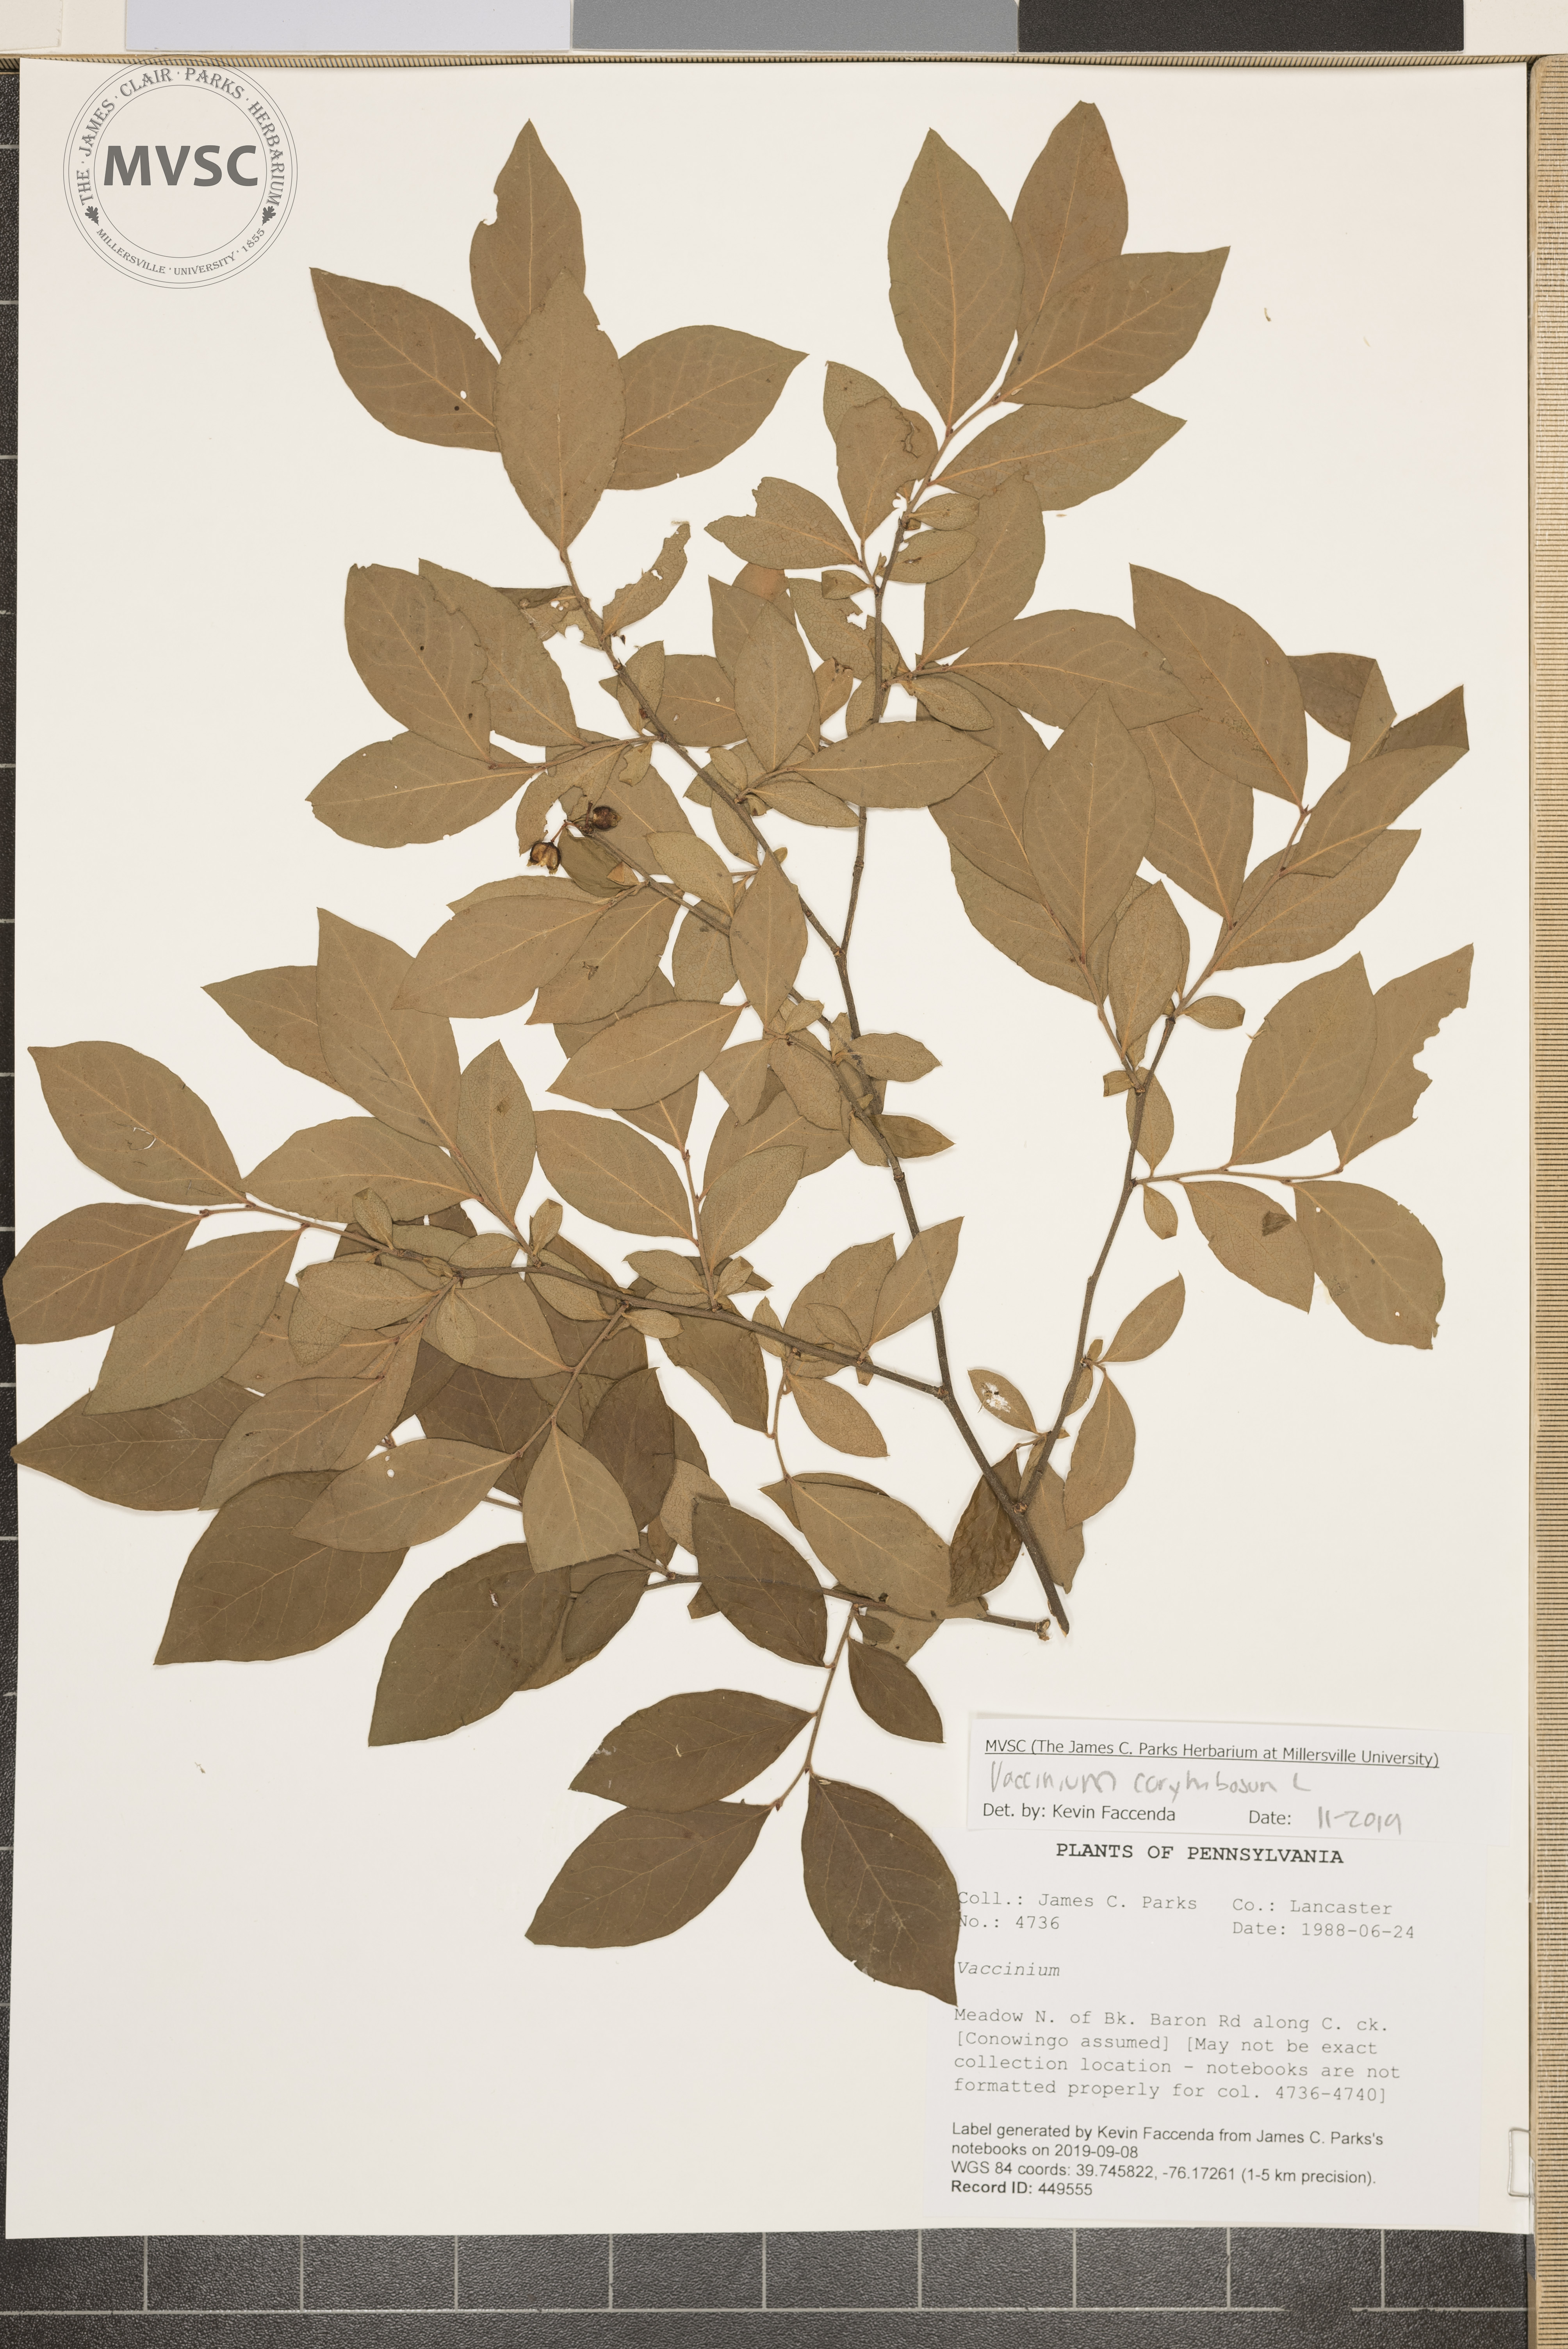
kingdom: Plantae
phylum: Tracheophyta
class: Magnoliopsida
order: Ericales
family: Ericaceae
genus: Vaccinium
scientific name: Vaccinium corymbosum
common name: Blueberry
